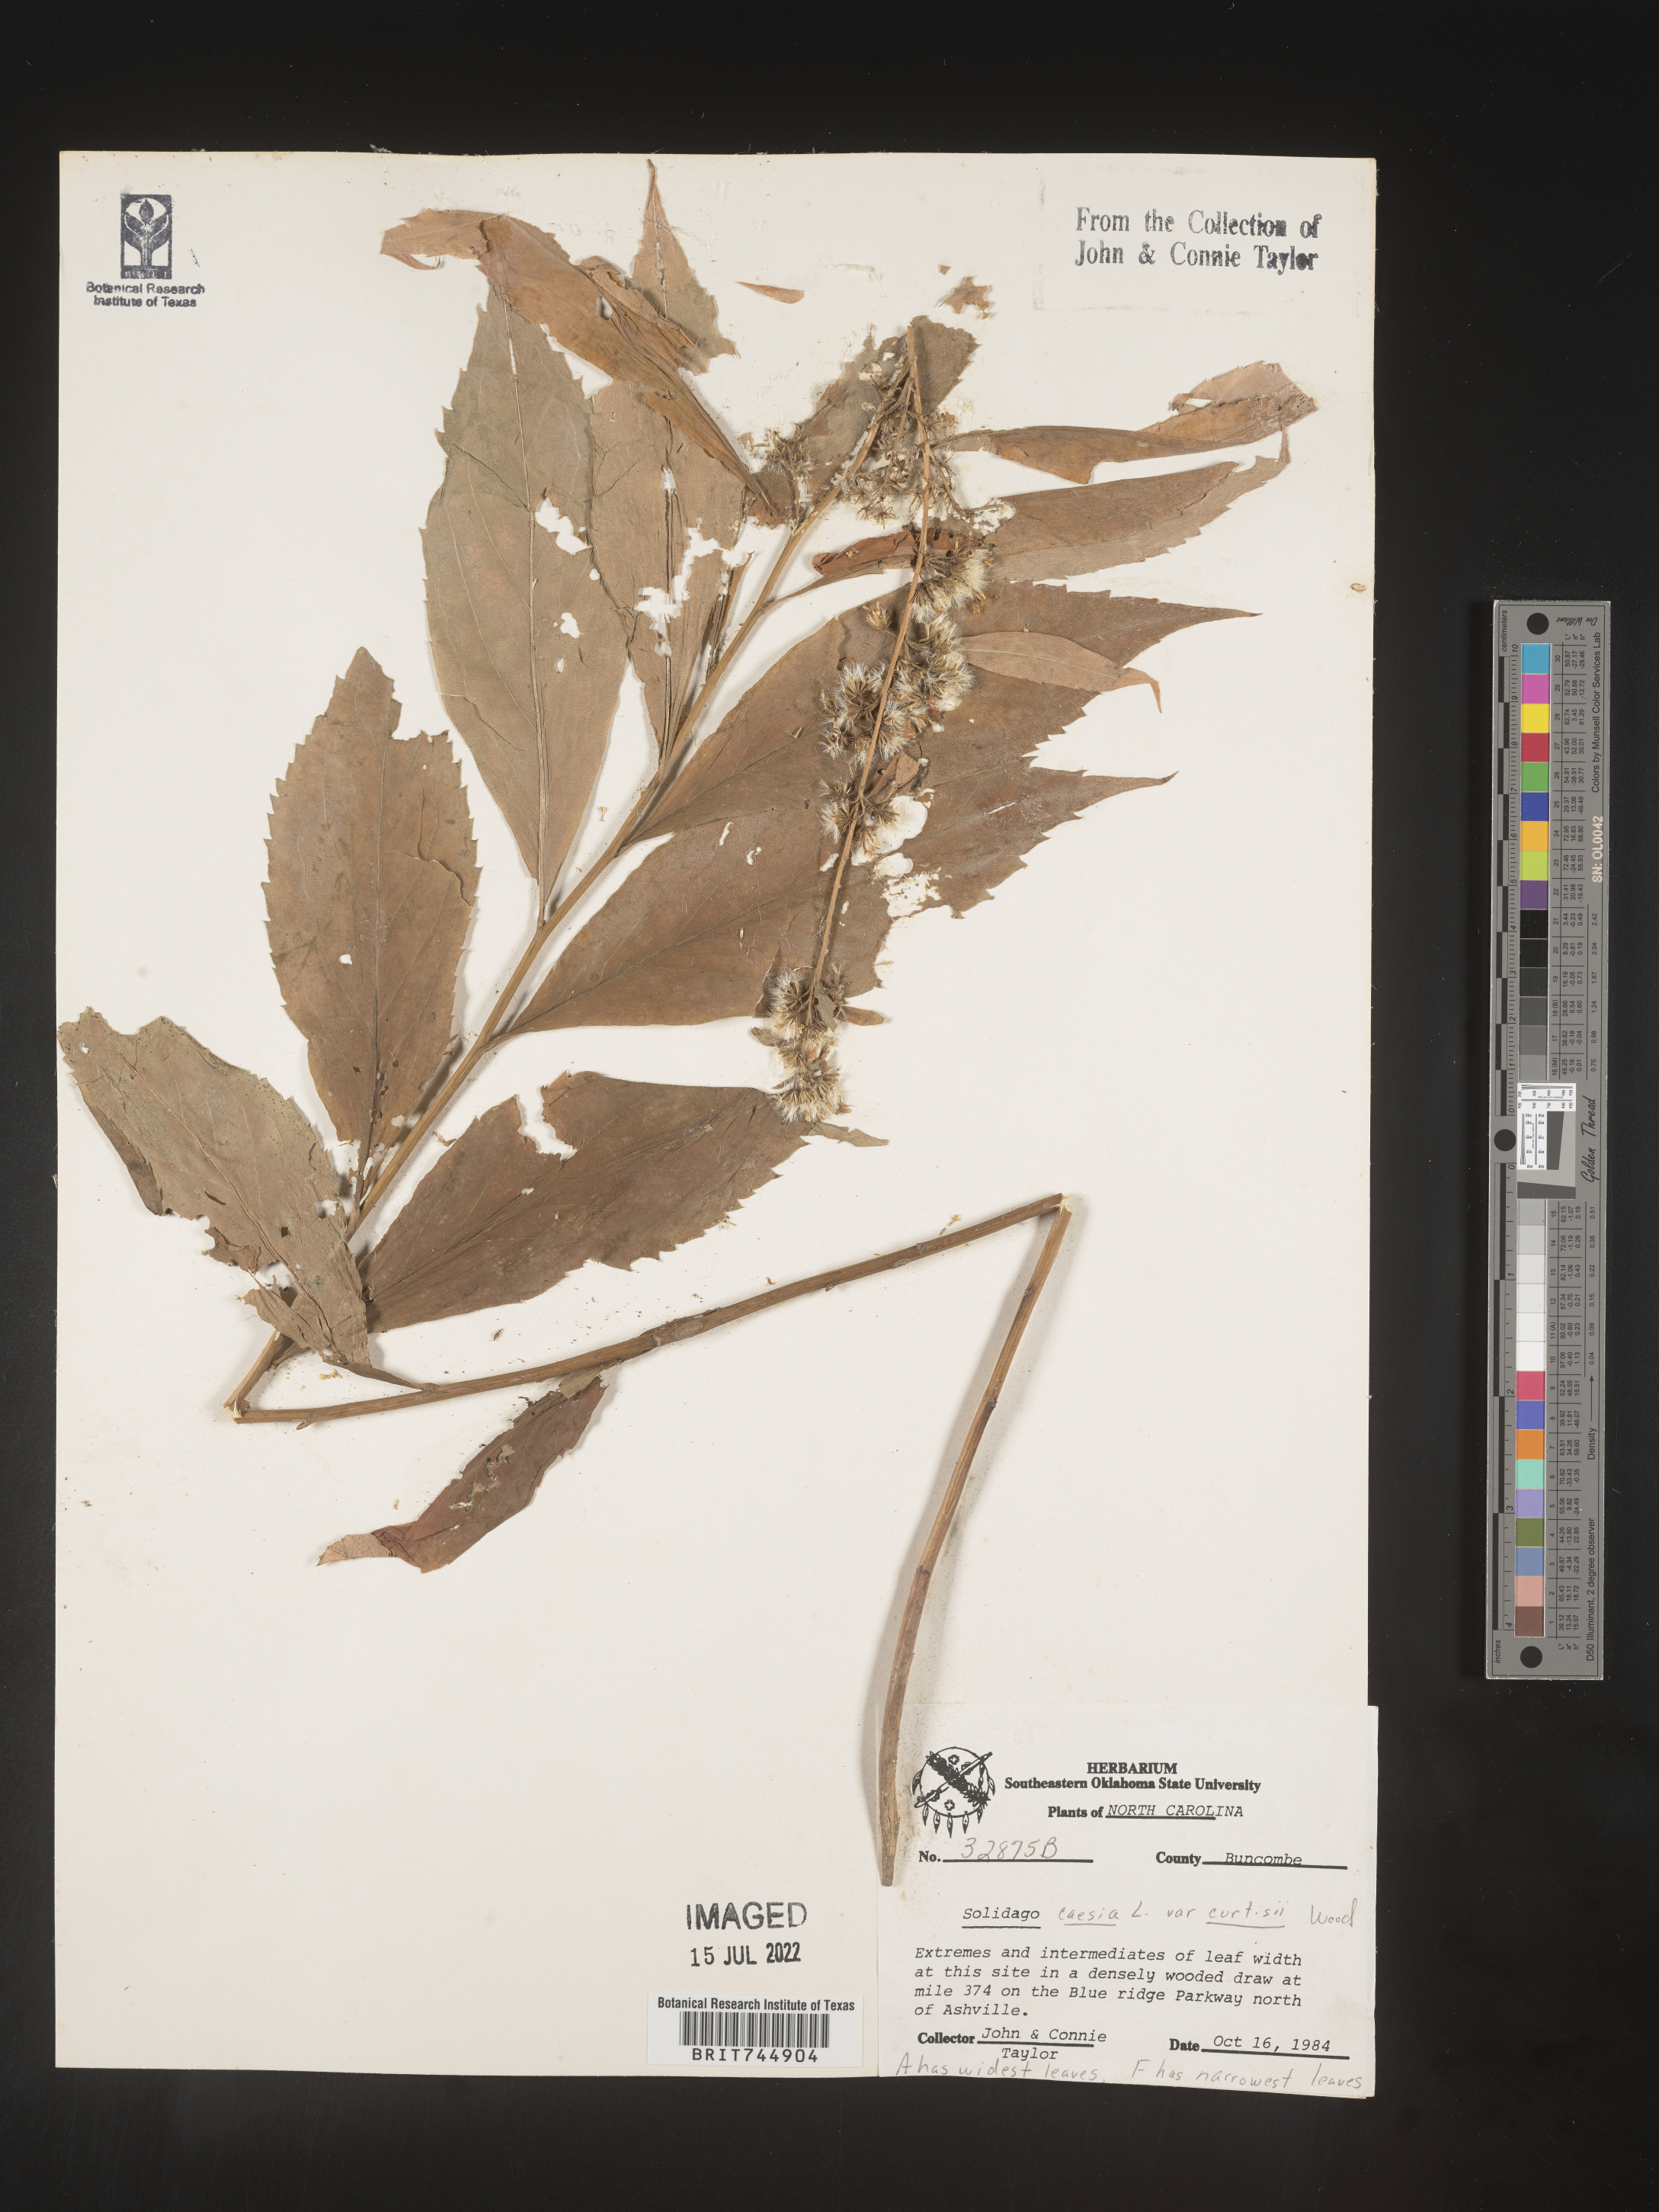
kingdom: Plantae
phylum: Tracheophyta
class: Magnoliopsida
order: Asterales
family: Asteraceae
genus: Solidago
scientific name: Solidago curtisii
